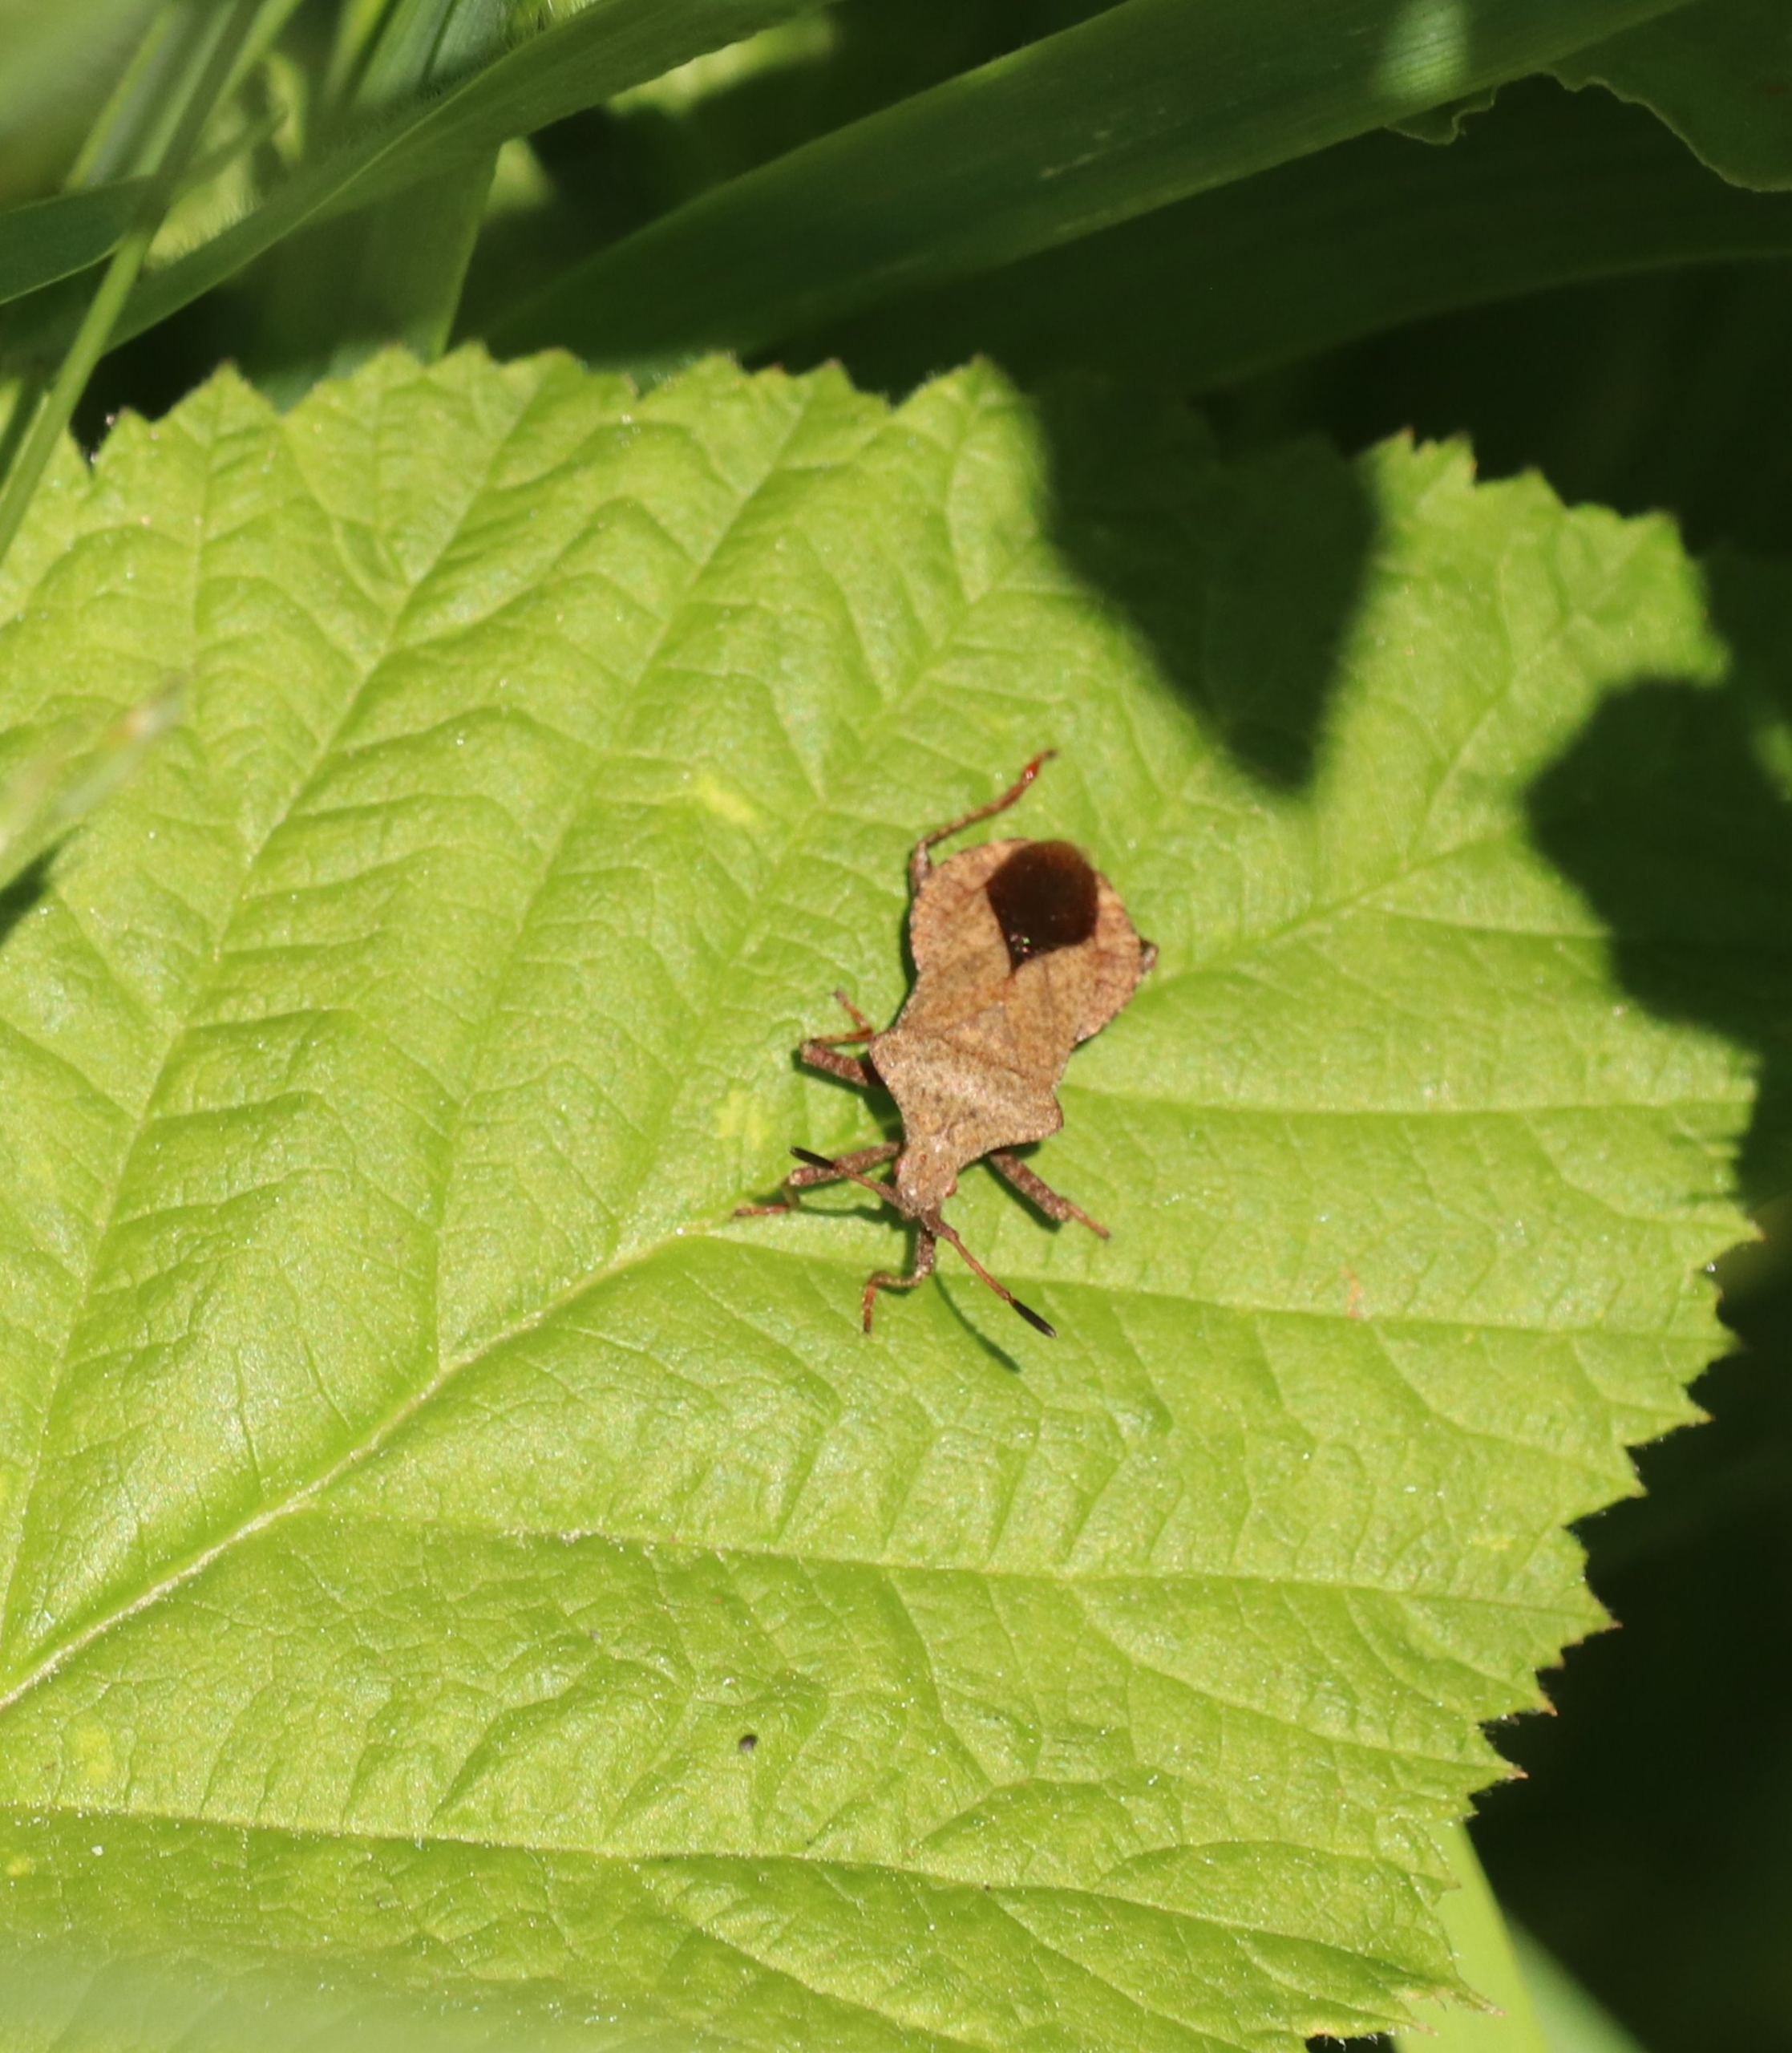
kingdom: Animalia
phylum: Arthropoda
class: Insecta
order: Hemiptera
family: Coreidae
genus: Coreus
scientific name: Coreus marginatus
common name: Skræppetæge
